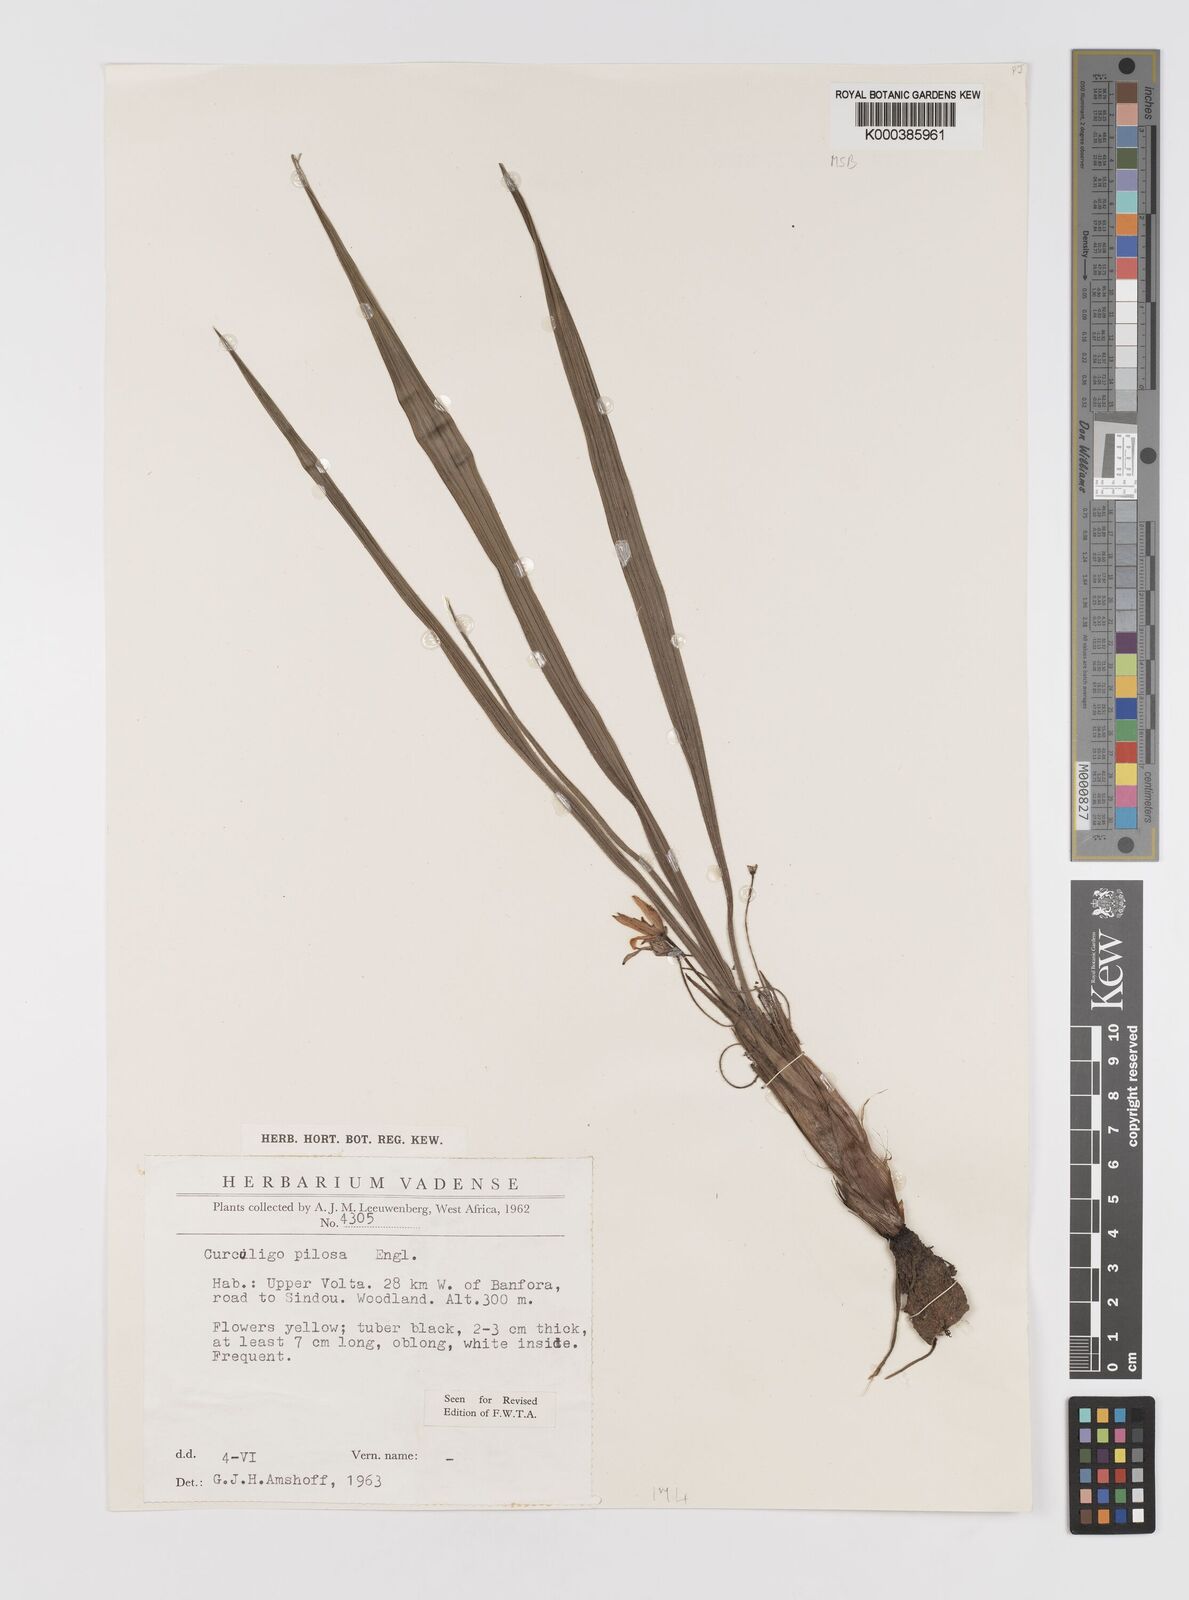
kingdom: Plantae
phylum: Tracheophyta
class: Liliopsida
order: Asparagales
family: Hypoxidaceae
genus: Curculigo
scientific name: Curculigo pilosa
